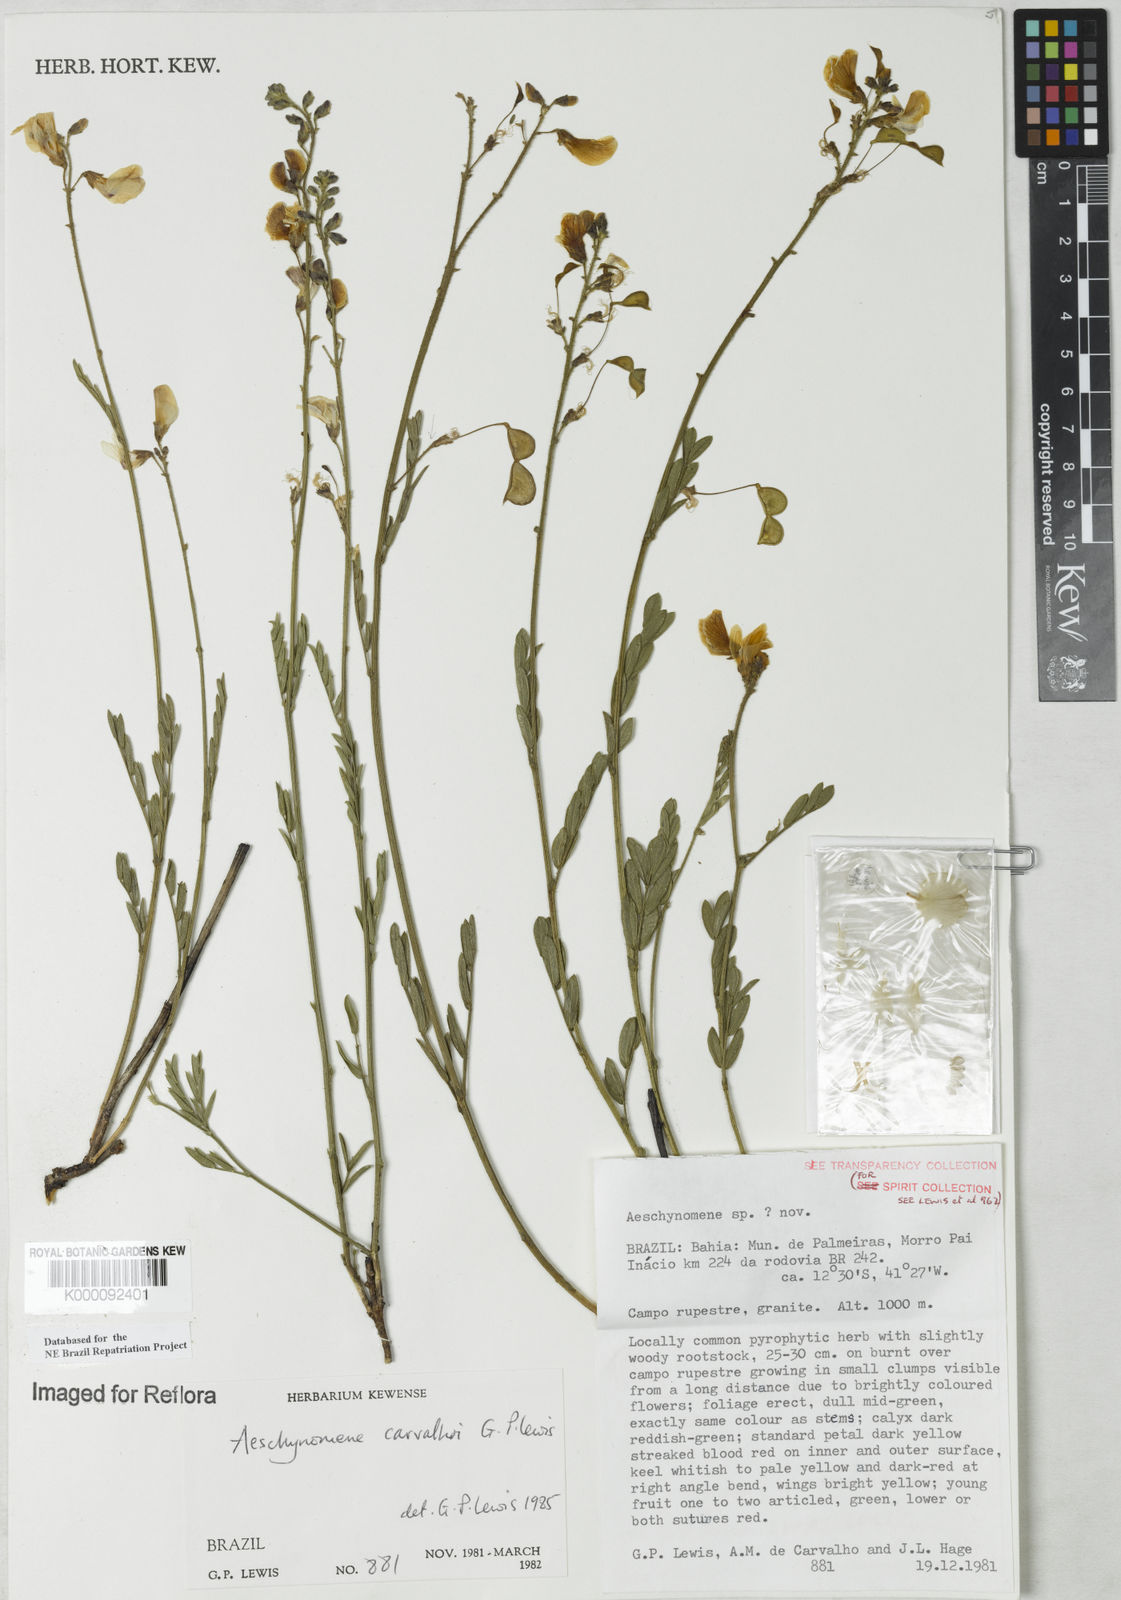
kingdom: Plantae
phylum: Tracheophyta
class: Magnoliopsida
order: Fabales
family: Fabaceae
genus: Ctenodon
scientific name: Ctenodon carvalhoi
